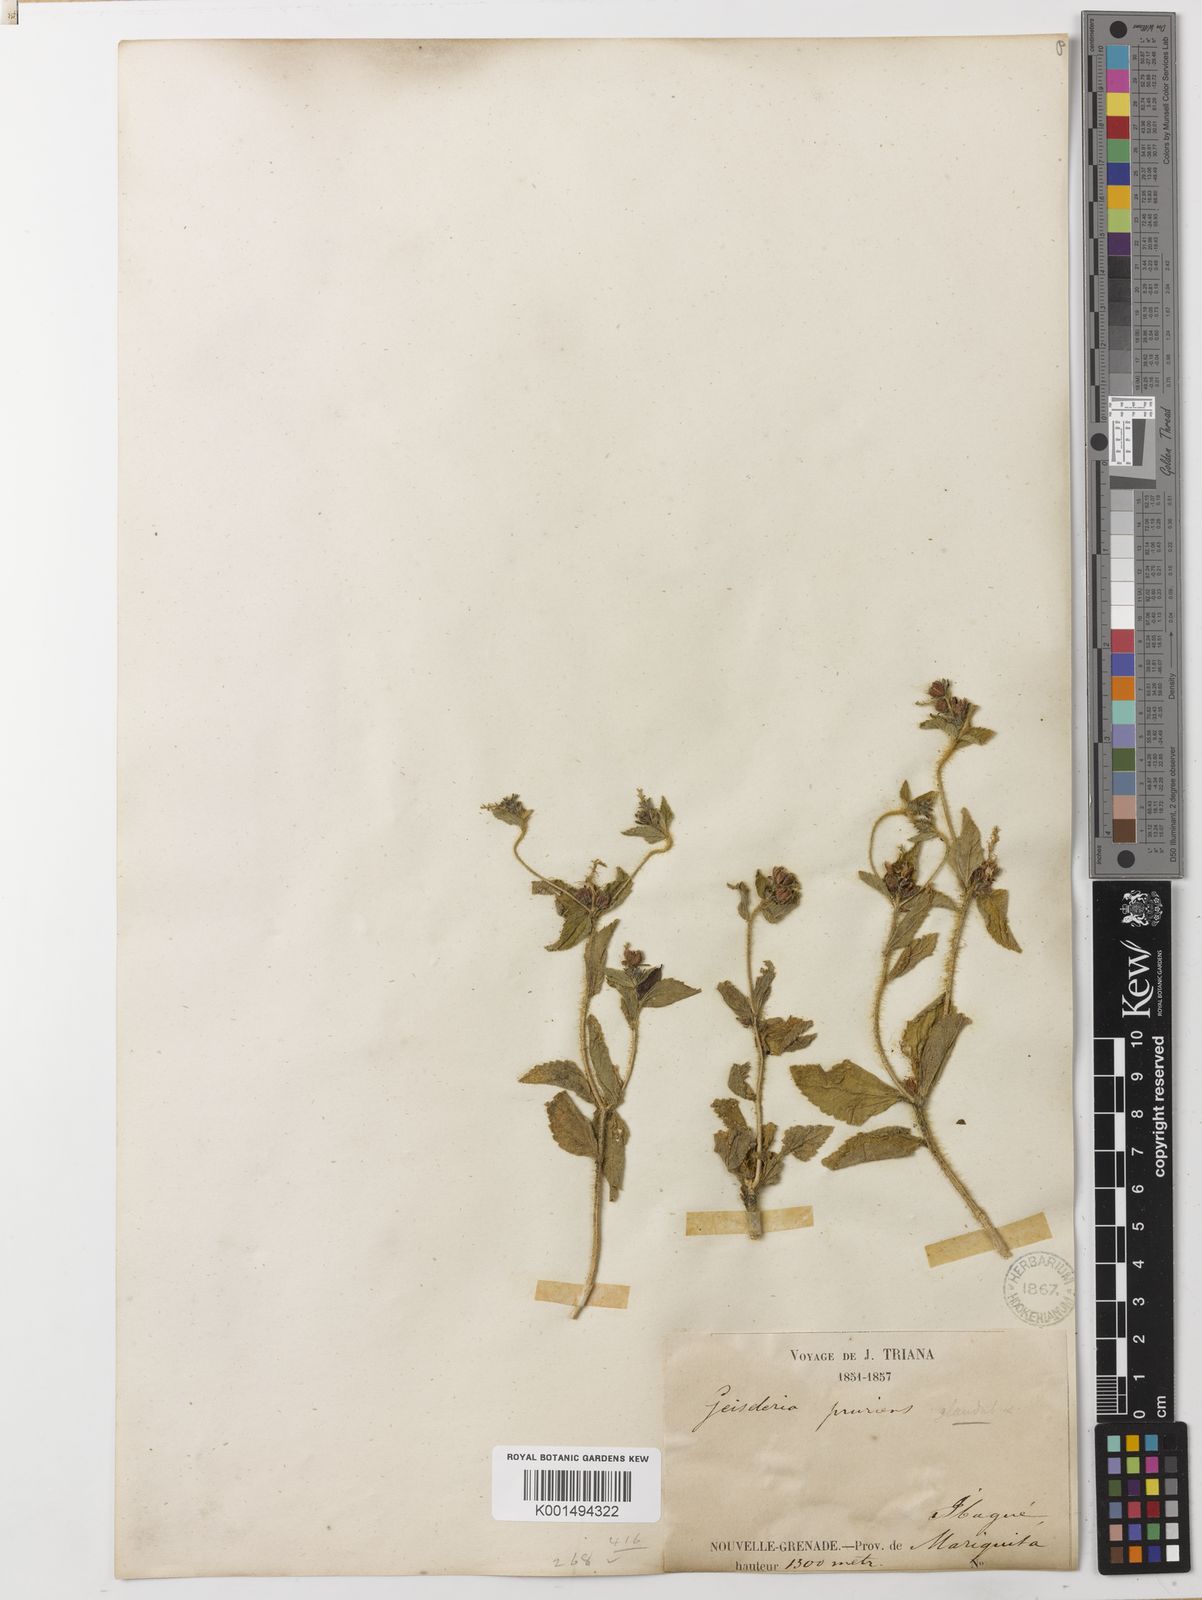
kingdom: Plantae
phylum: Tracheophyta
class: Magnoliopsida
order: Malpighiales
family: Euphorbiaceae
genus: Croton
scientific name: Croton hirtus
